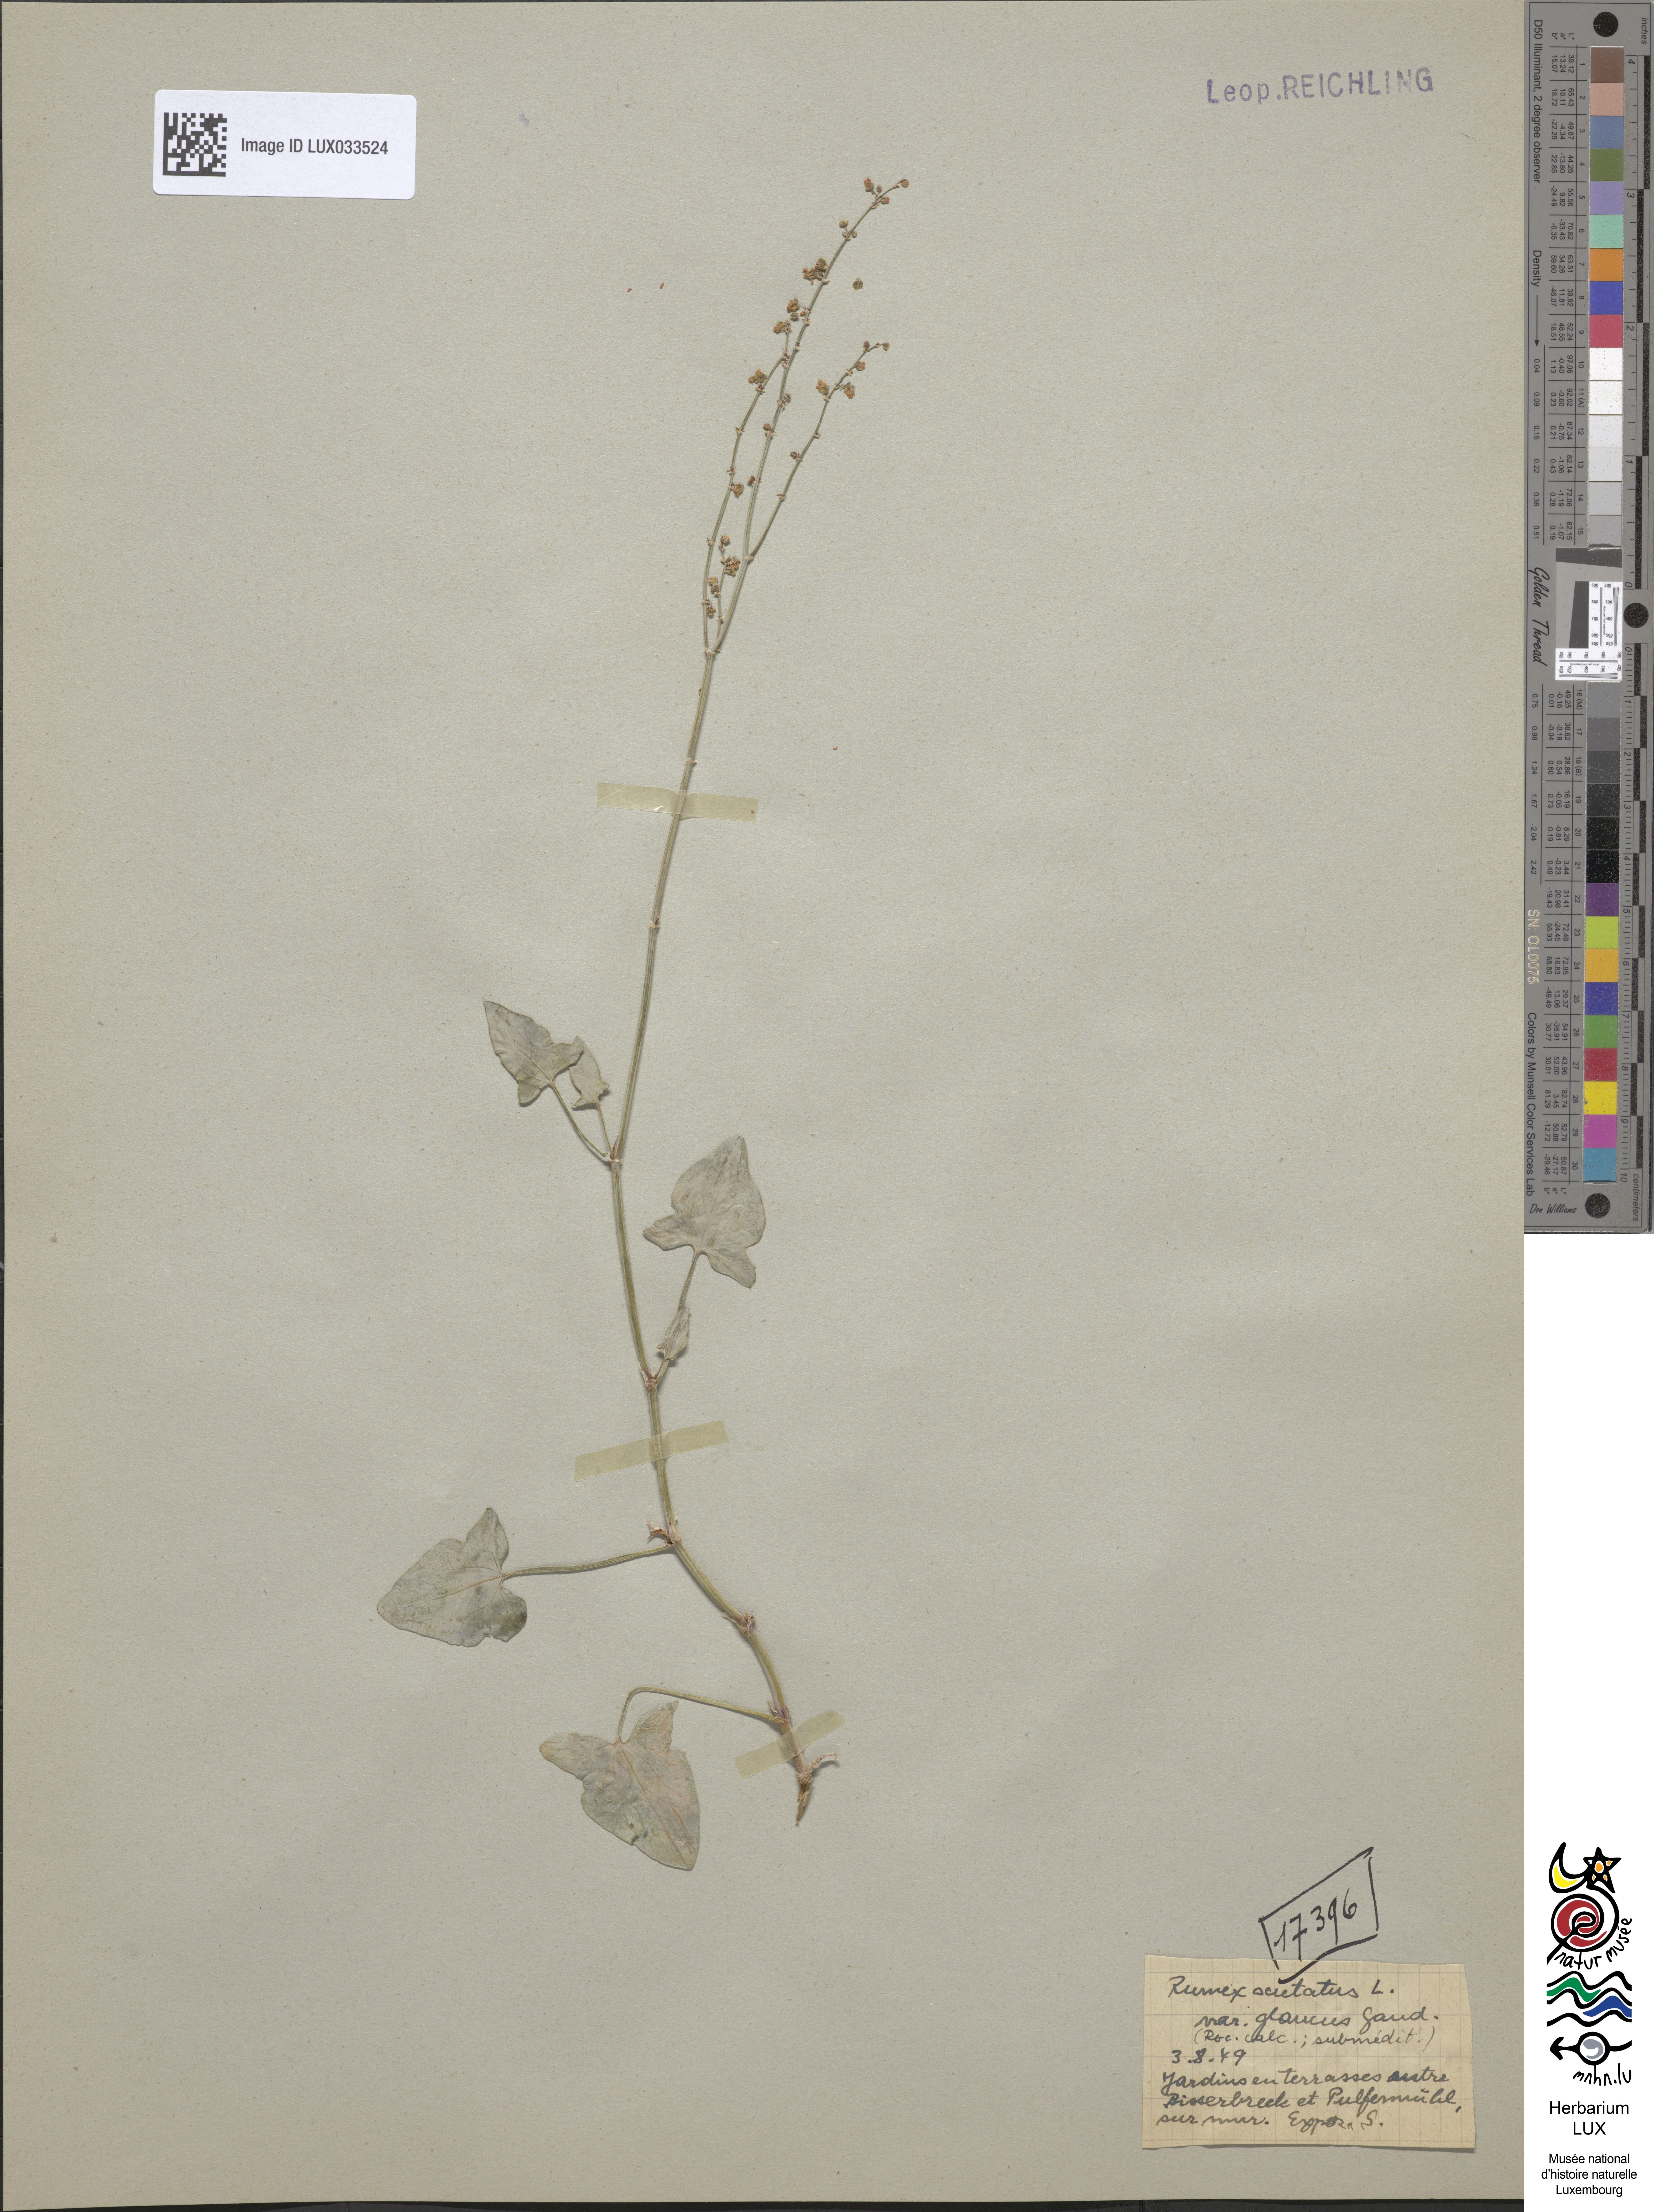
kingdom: Plantae
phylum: Tracheophyta
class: Magnoliopsida
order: Caryophyllales
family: Polygonaceae
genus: Rumex
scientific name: Rumex scutatus
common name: French sorrel
